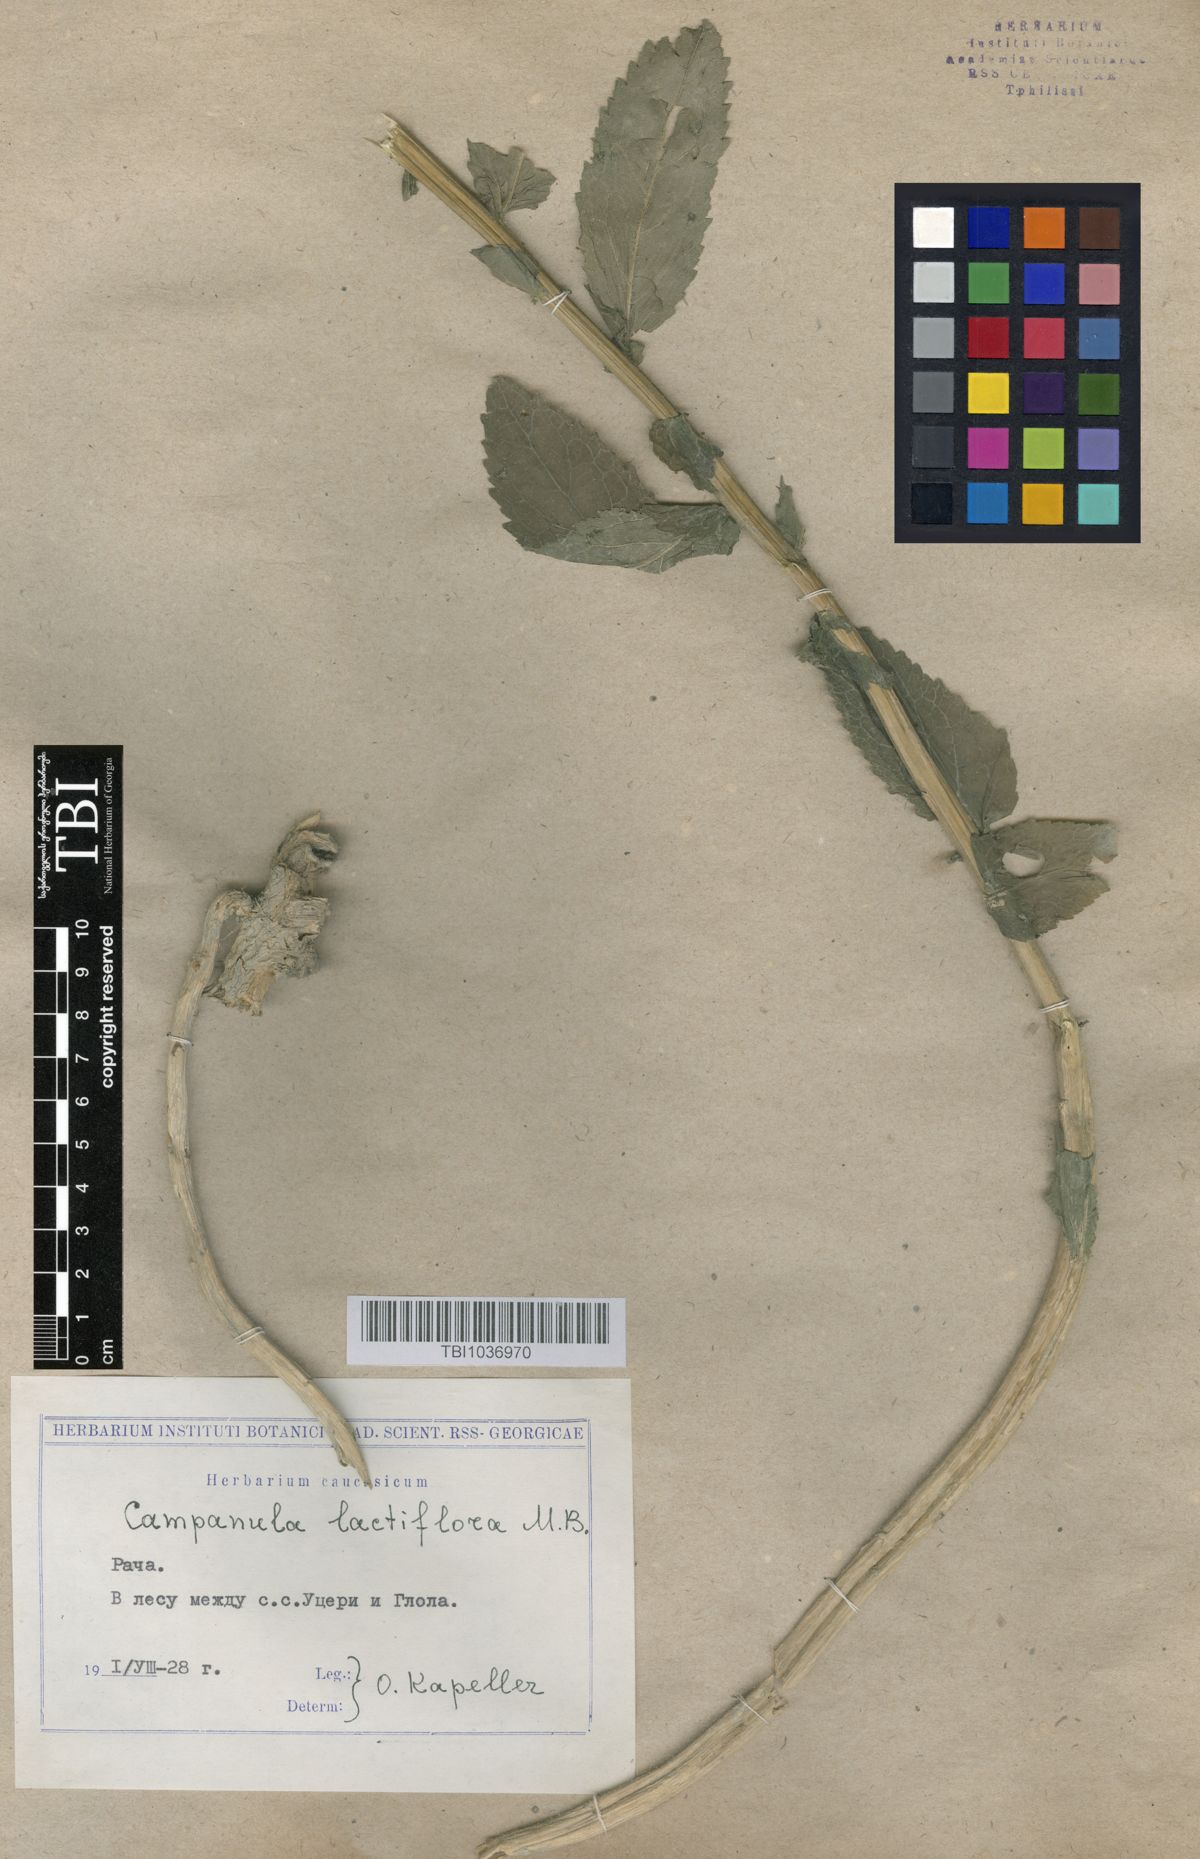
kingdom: Plantae
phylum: Tracheophyta
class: Magnoliopsida
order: Asterales
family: Campanulaceae
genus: Campanula
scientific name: Campanula lactiflora
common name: Milky bellflower
